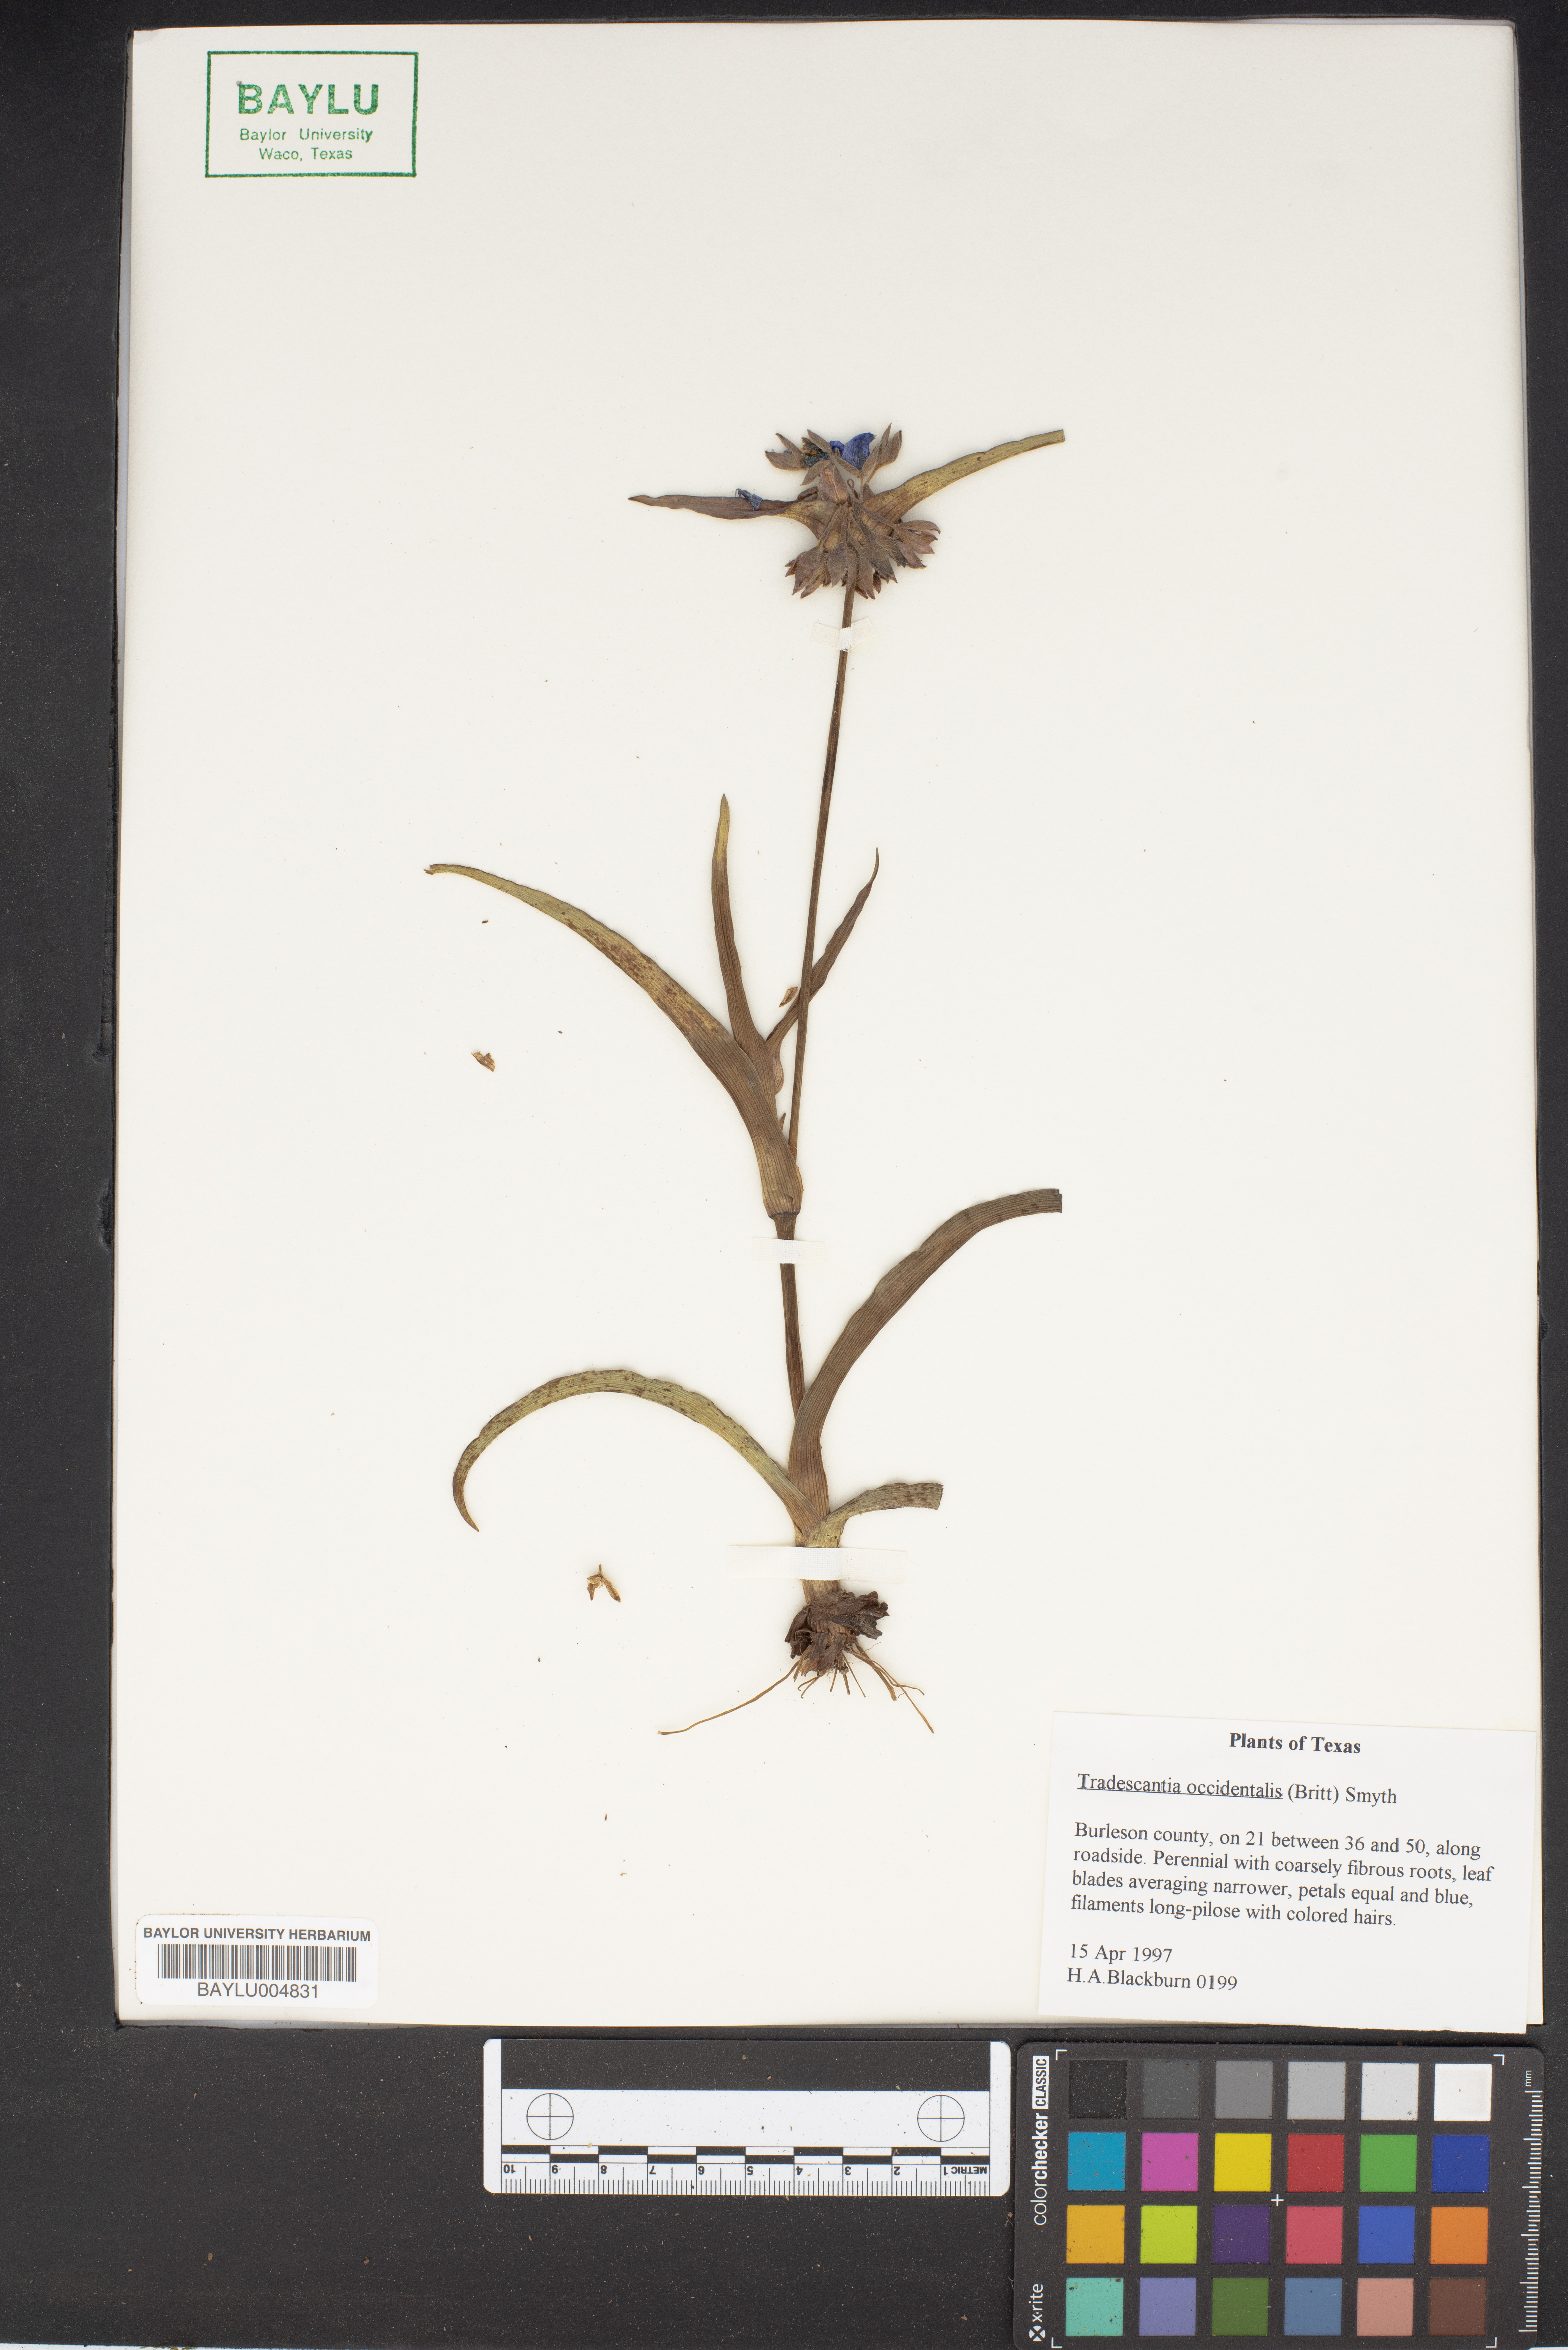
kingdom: Plantae
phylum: Tracheophyta
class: Liliopsida
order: Commelinales
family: Commelinaceae
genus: Tradescantia
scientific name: Tradescantia occidentalis
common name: Prairie spiderwort
